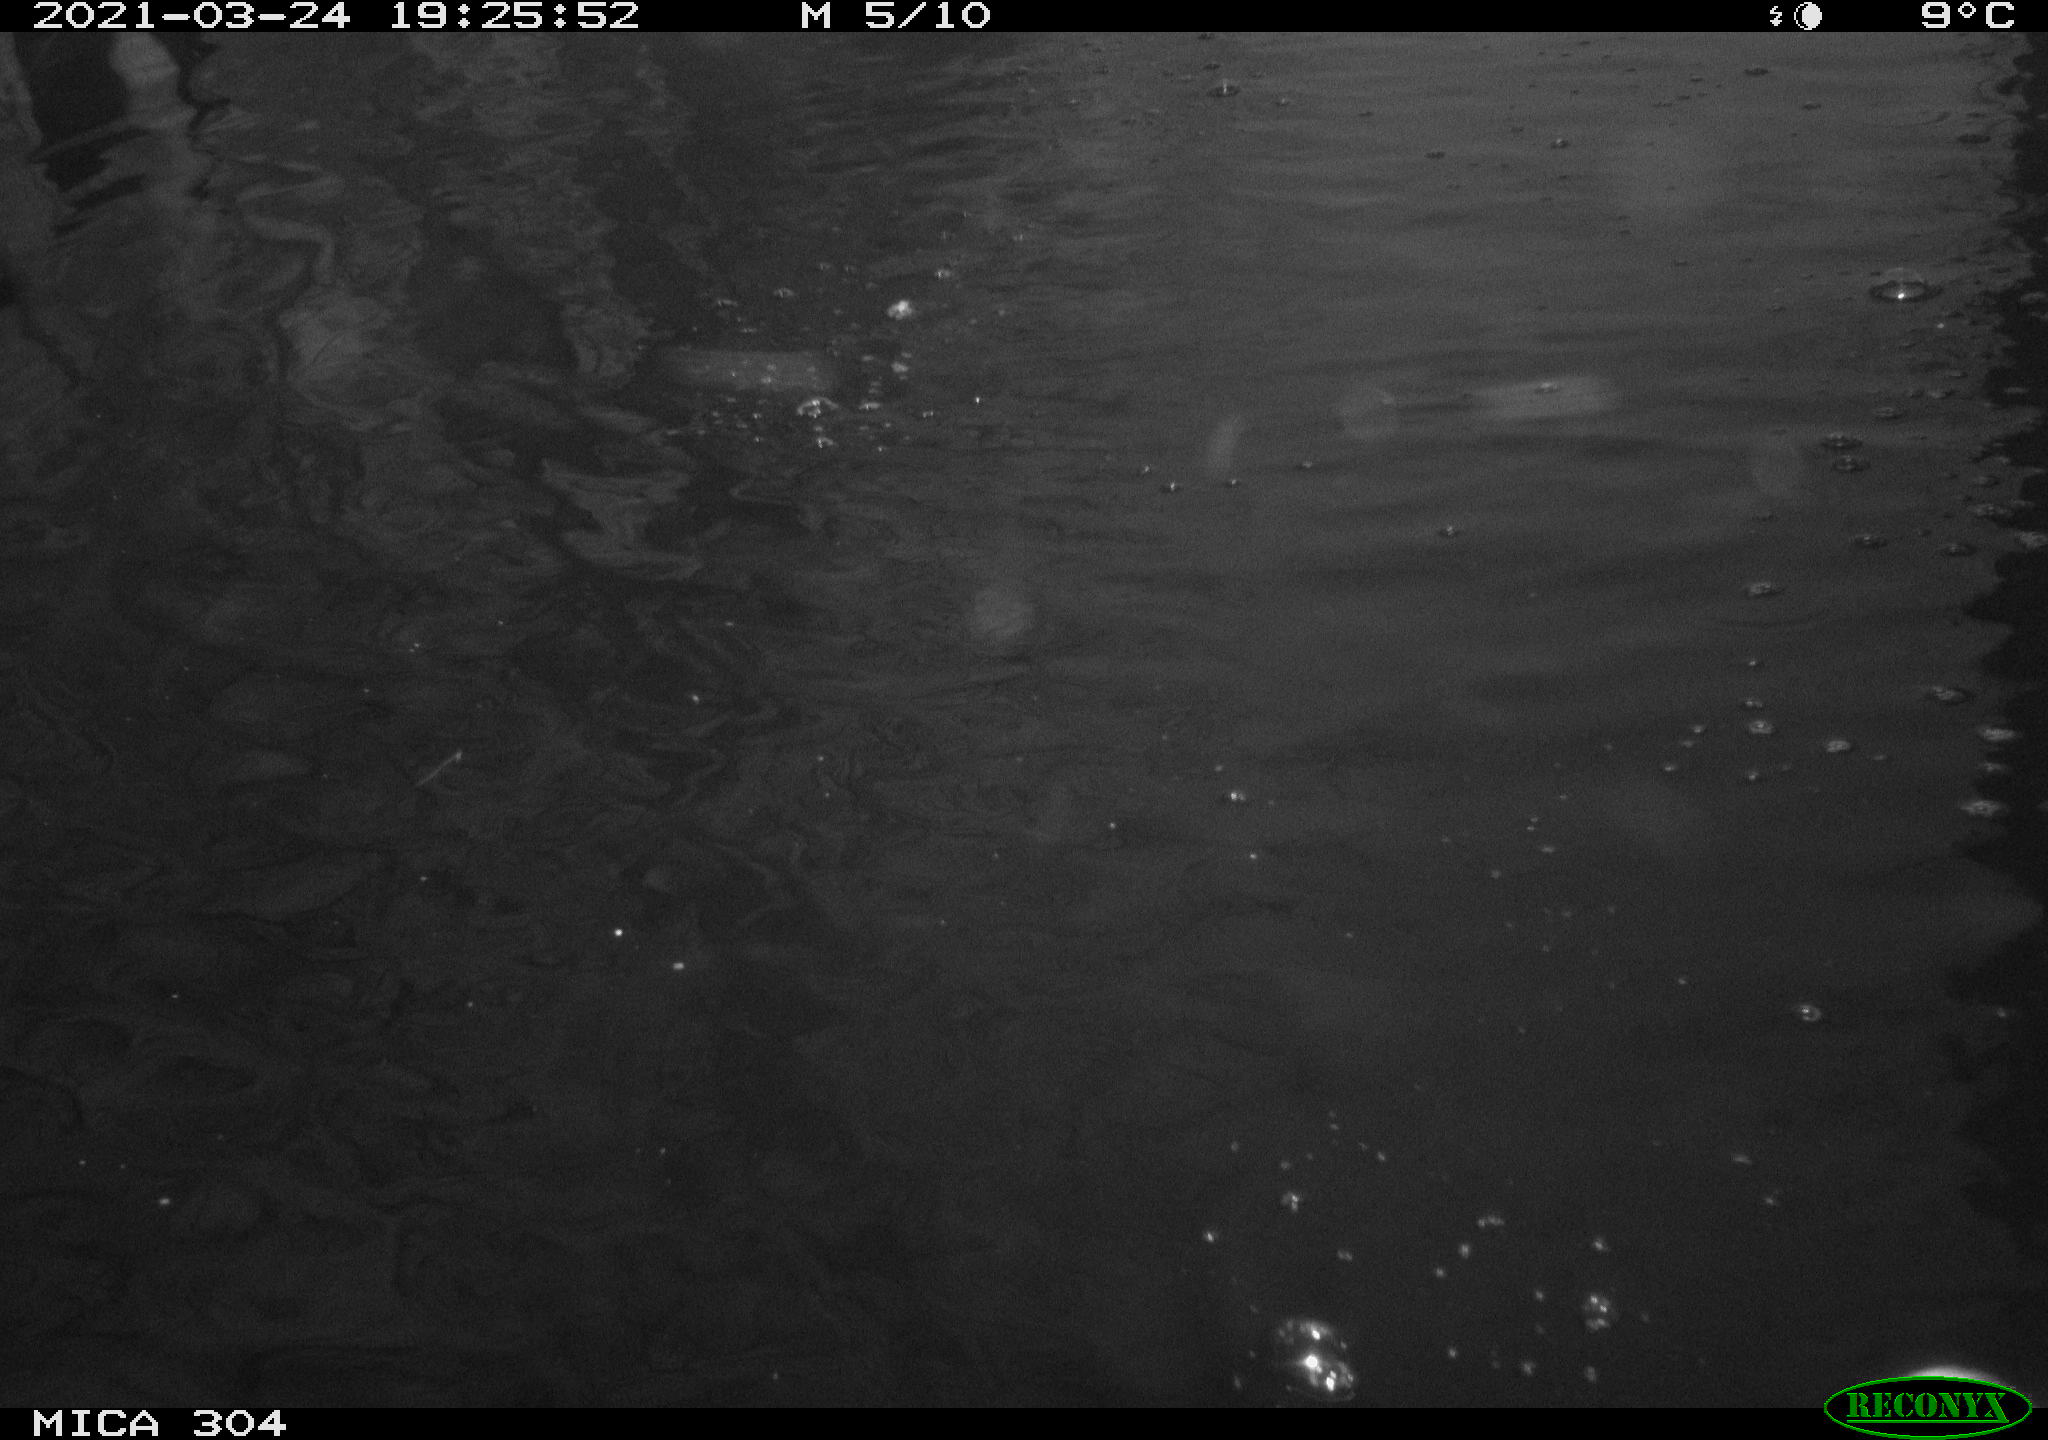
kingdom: Animalia
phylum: Chordata
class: Aves
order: Gruiformes
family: Rallidae
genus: Fulica
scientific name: Fulica atra
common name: Eurasian coot
